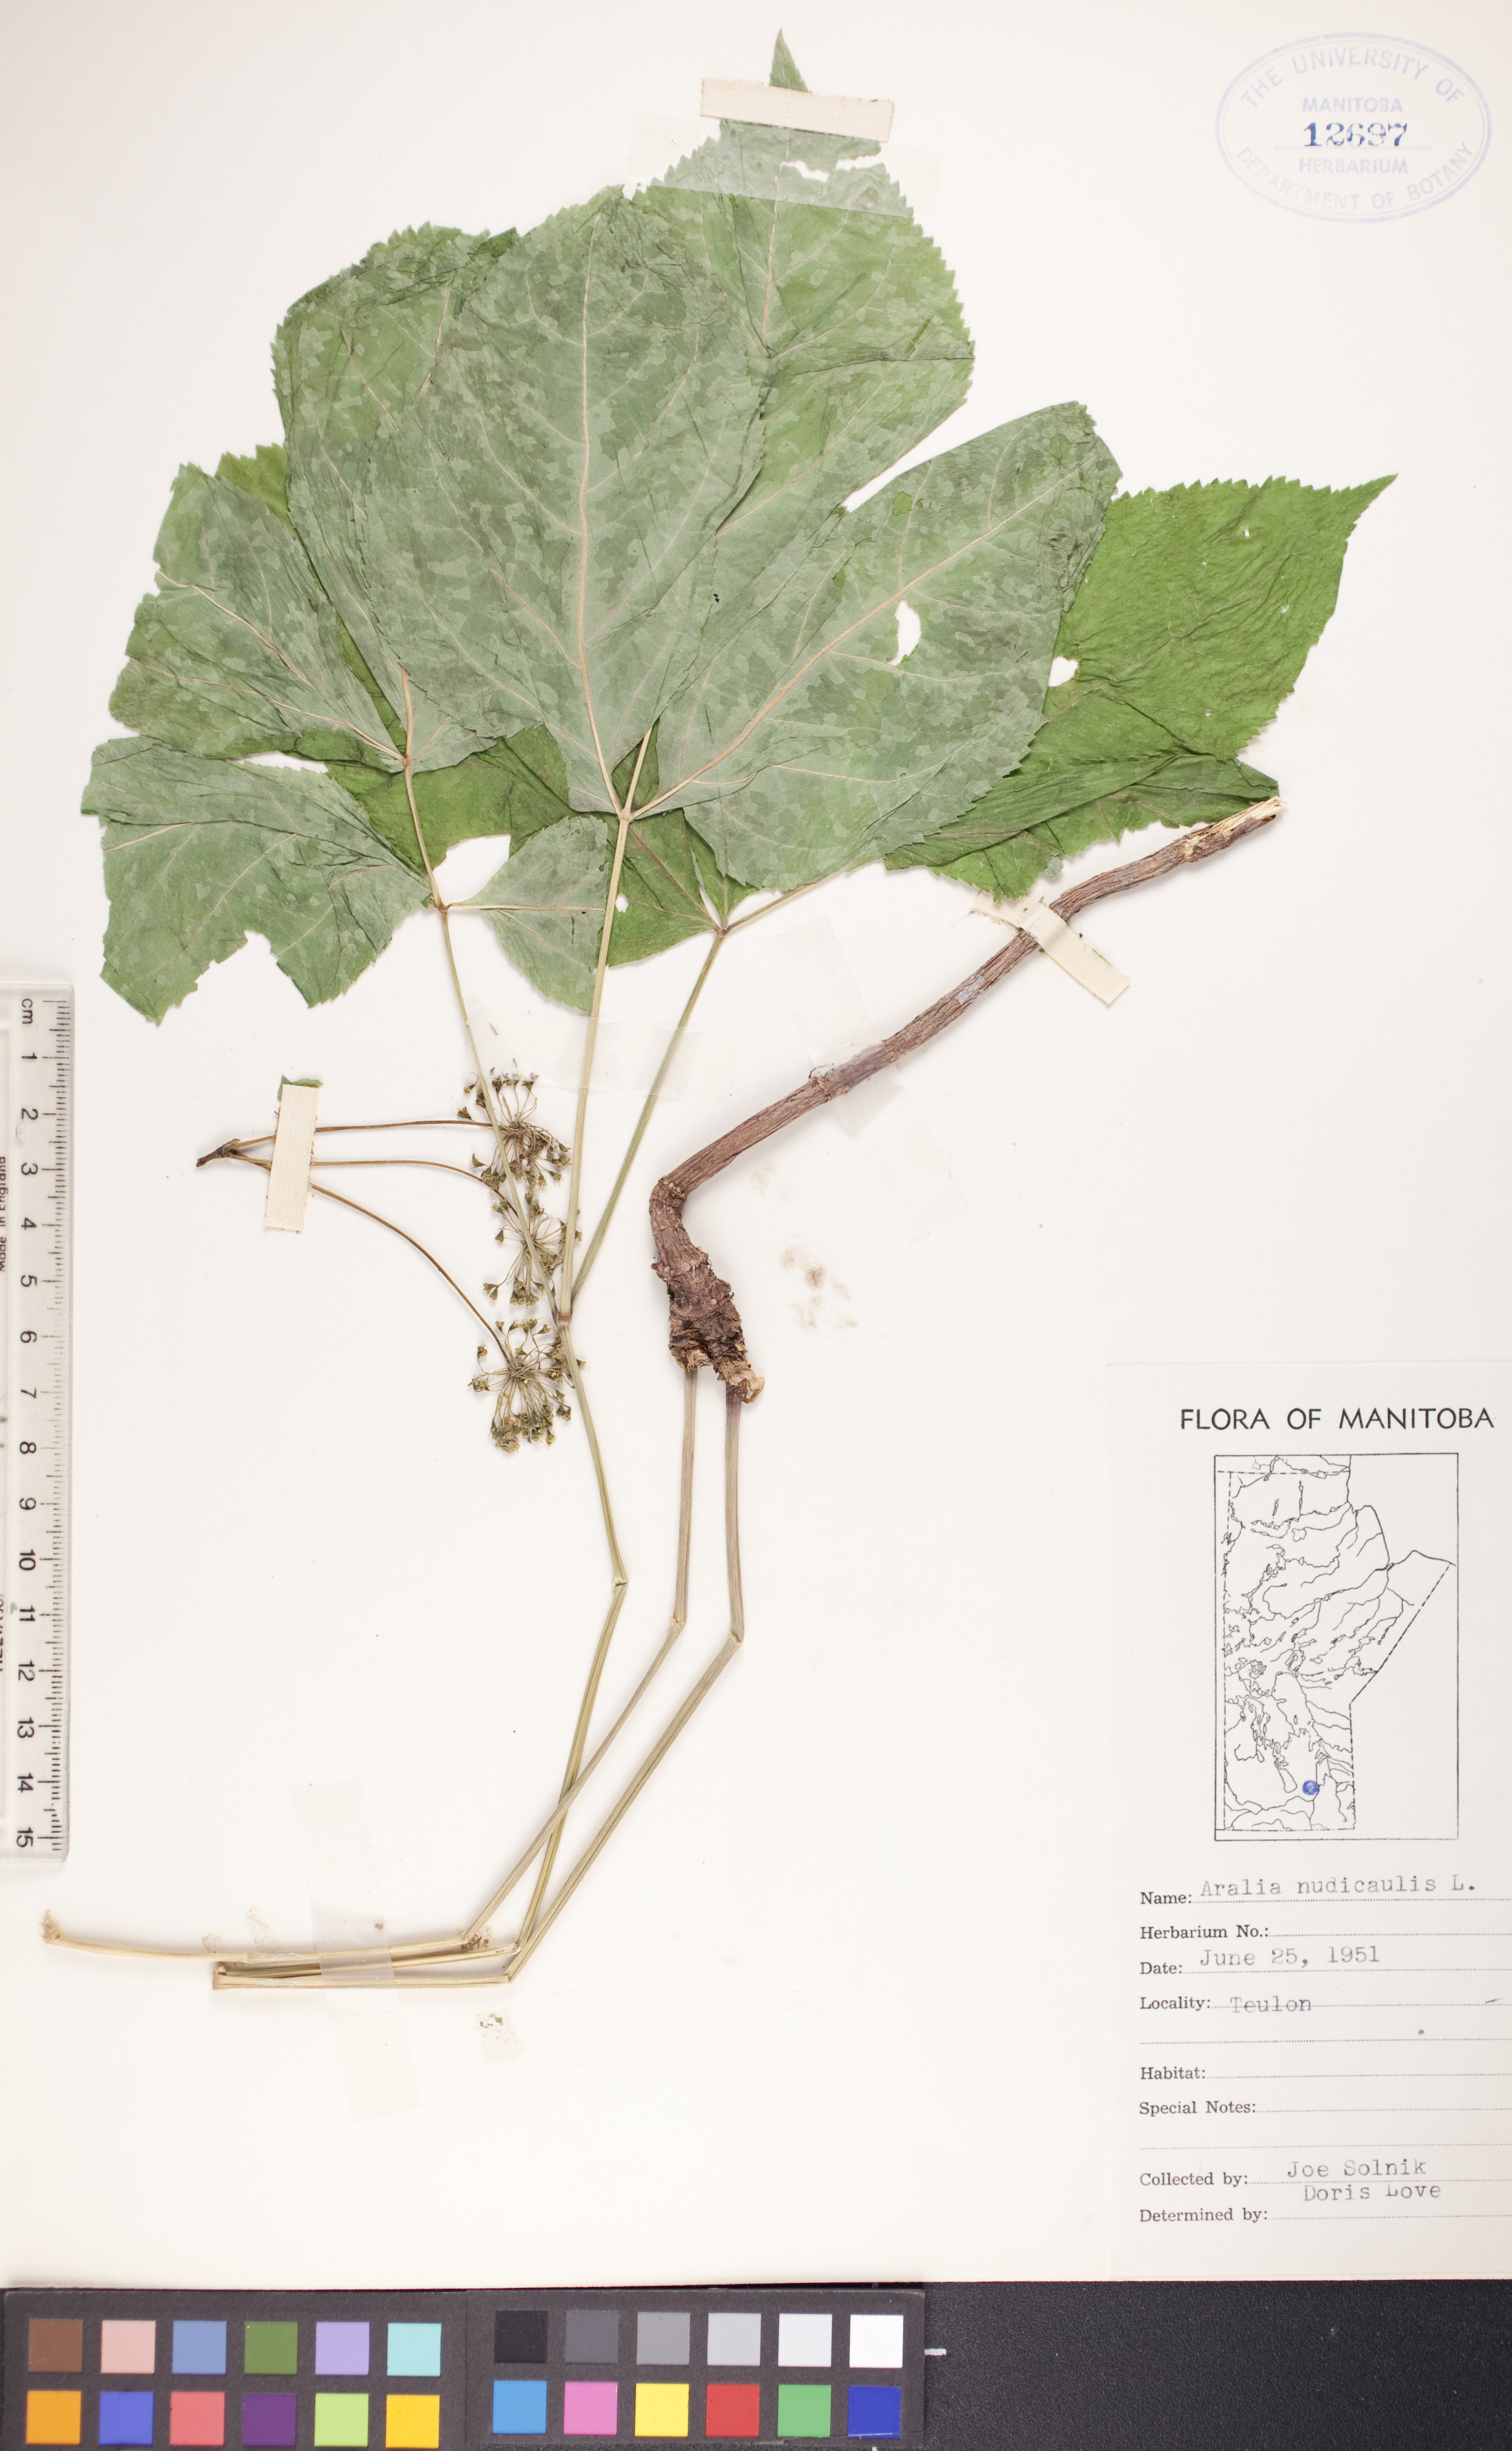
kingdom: Plantae
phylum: Tracheophyta
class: Magnoliopsida
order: Apiales
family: Araliaceae
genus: Aralia
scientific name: Aralia nudicaulis
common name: Wild sarsaparilla
